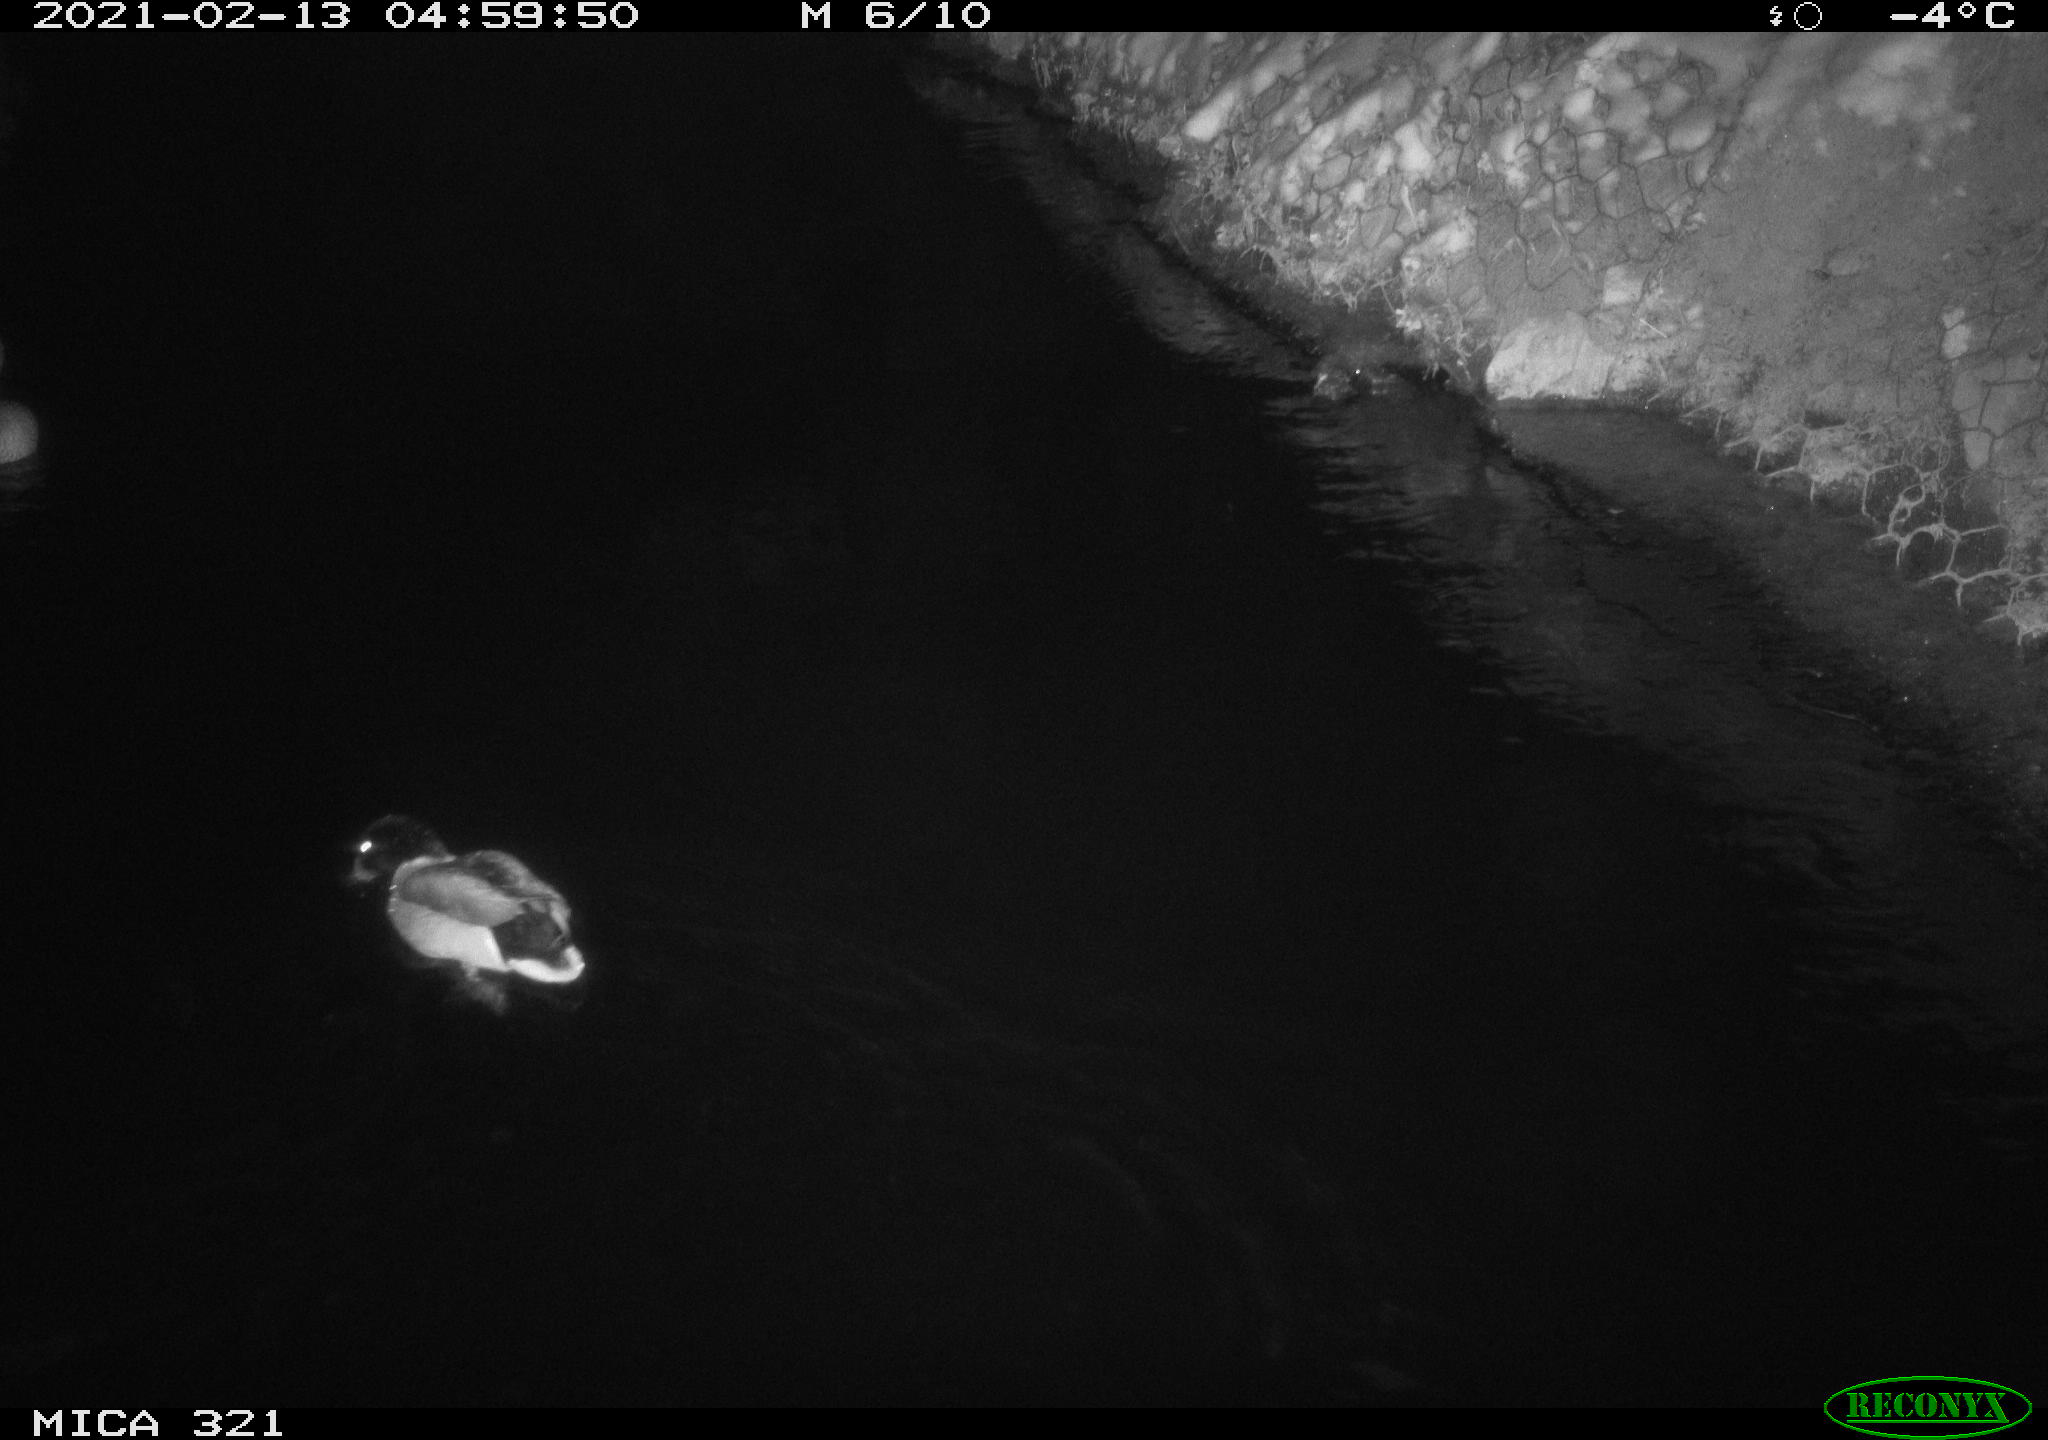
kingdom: Animalia
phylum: Chordata
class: Aves
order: Anseriformes
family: Anatidae
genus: Anas
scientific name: Anas platyrhynchos
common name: Mallard
